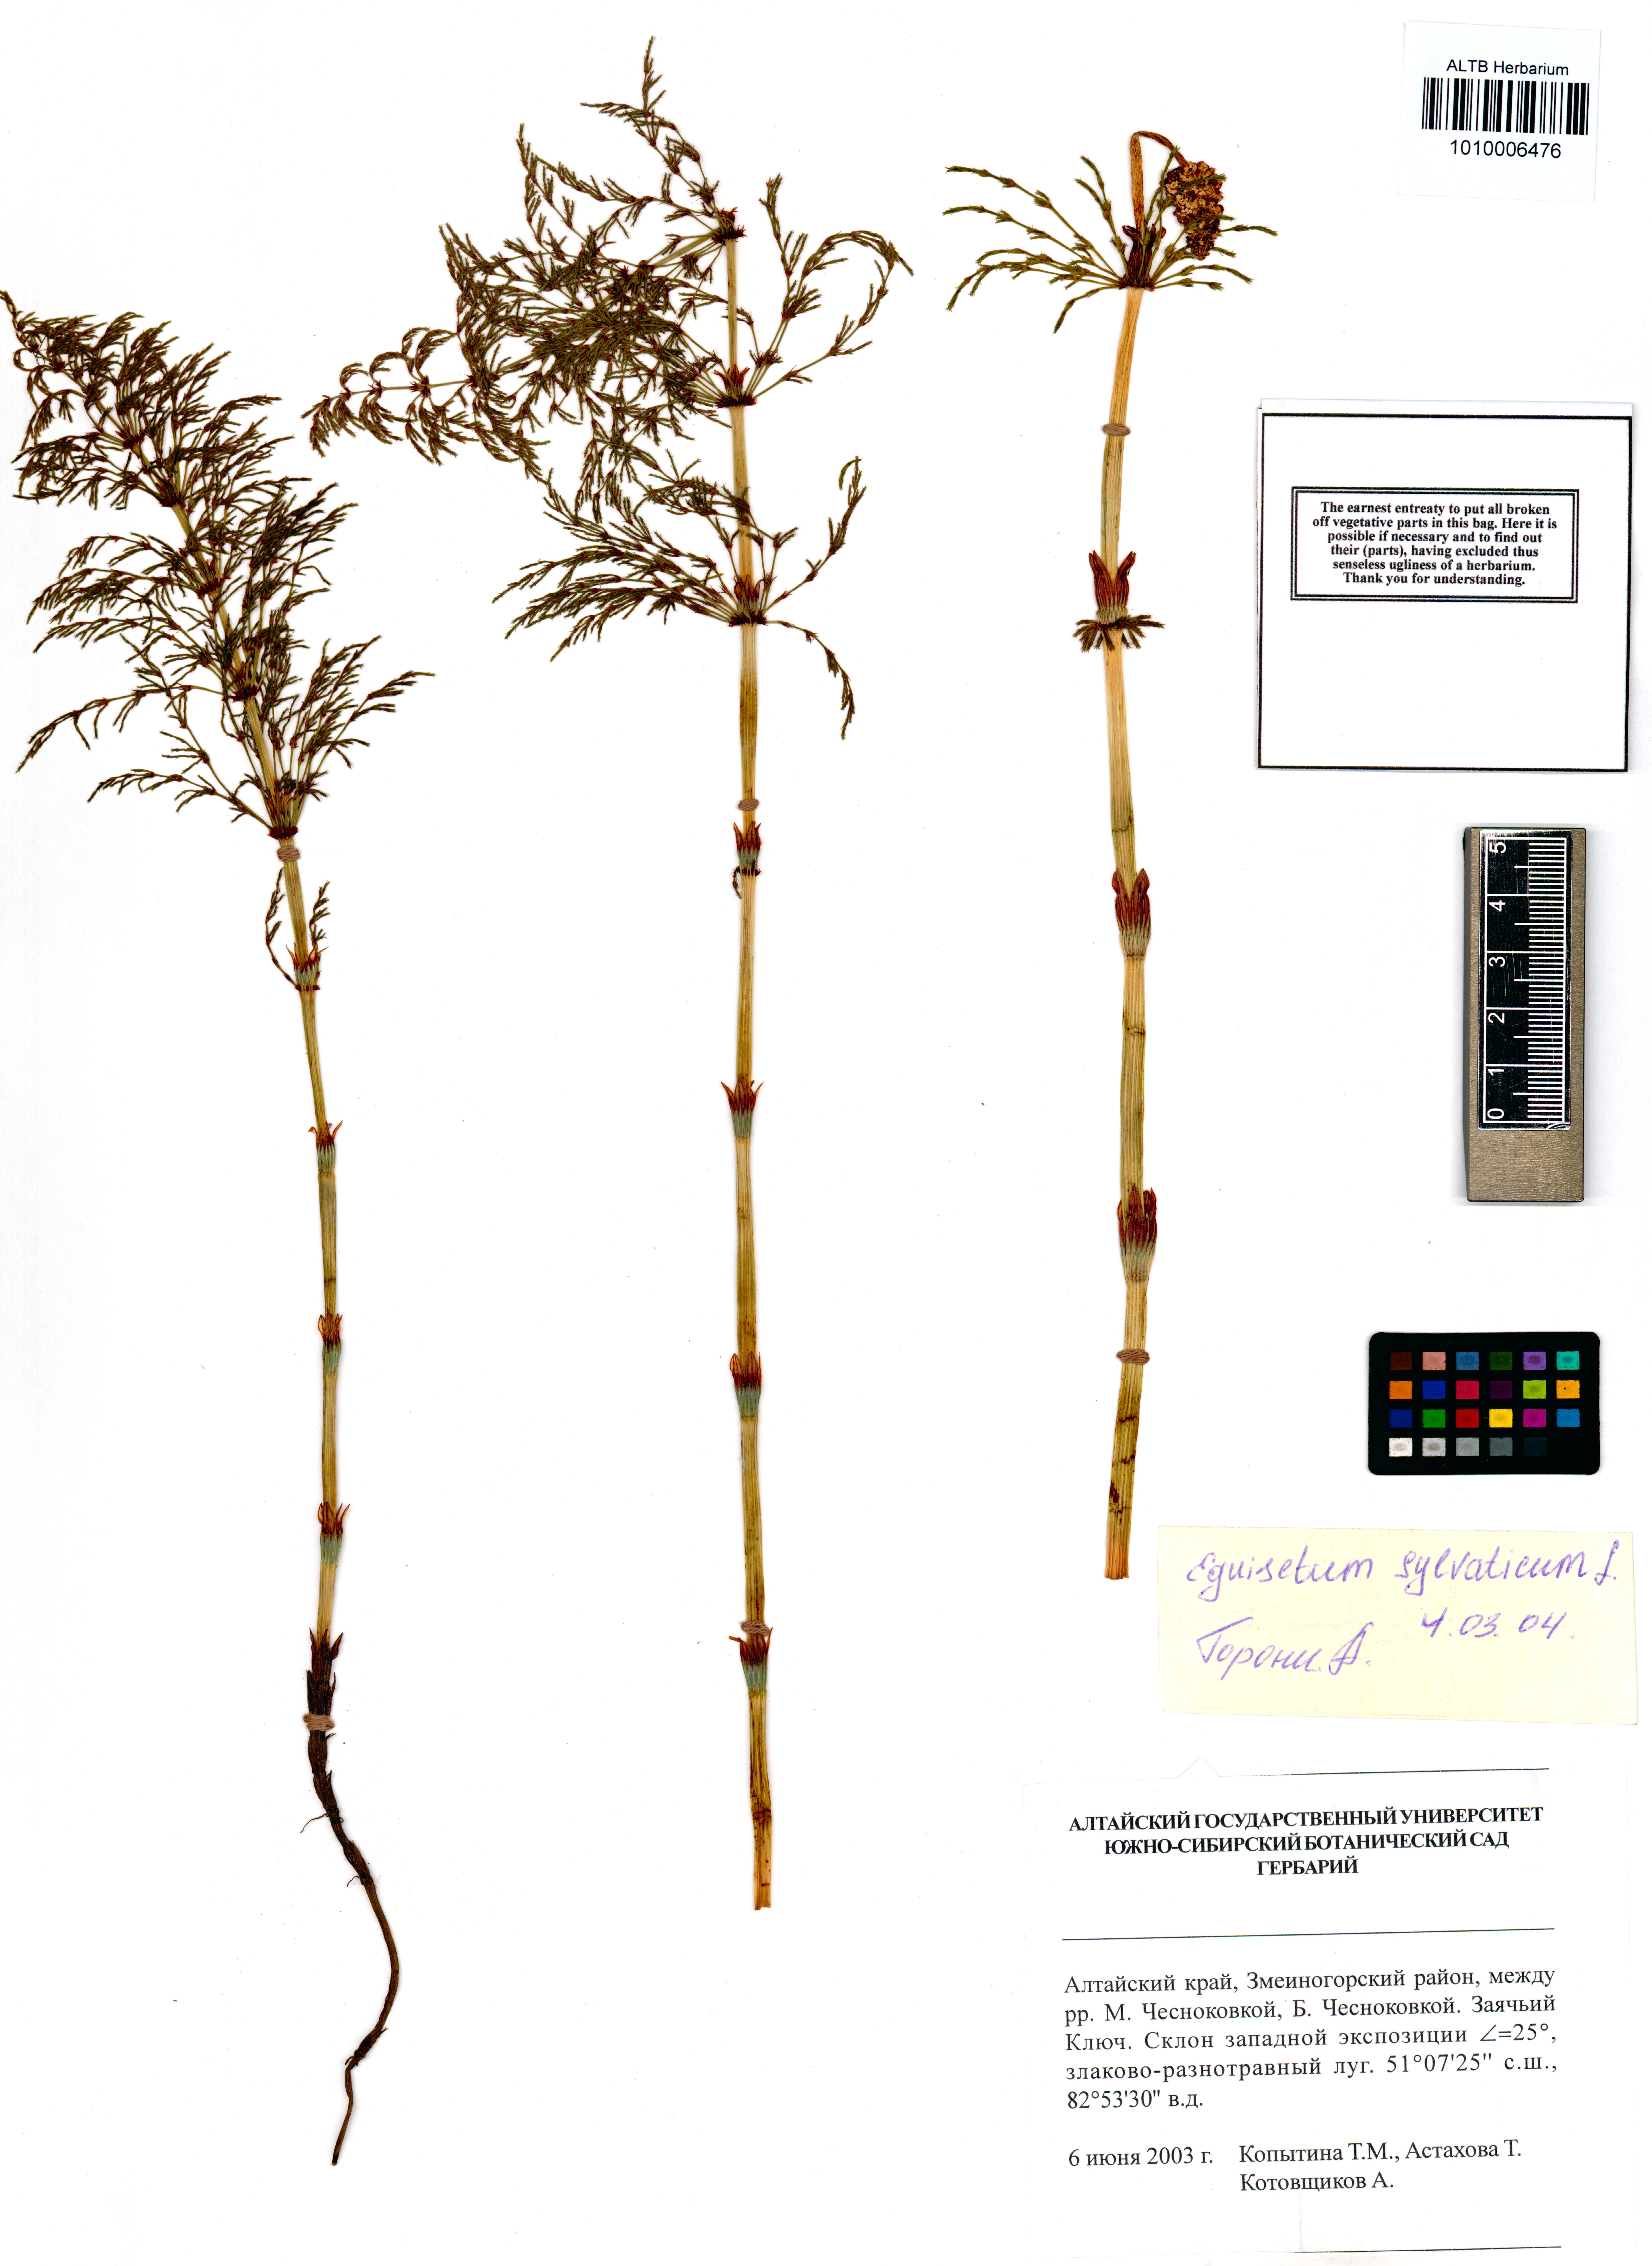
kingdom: Plantae
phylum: Tracheophyta
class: Polypodiopsida
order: Equisetales
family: Equisetaceae
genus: Equisetum
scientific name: Equisetum sylvaticum
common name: Wood horsetail
